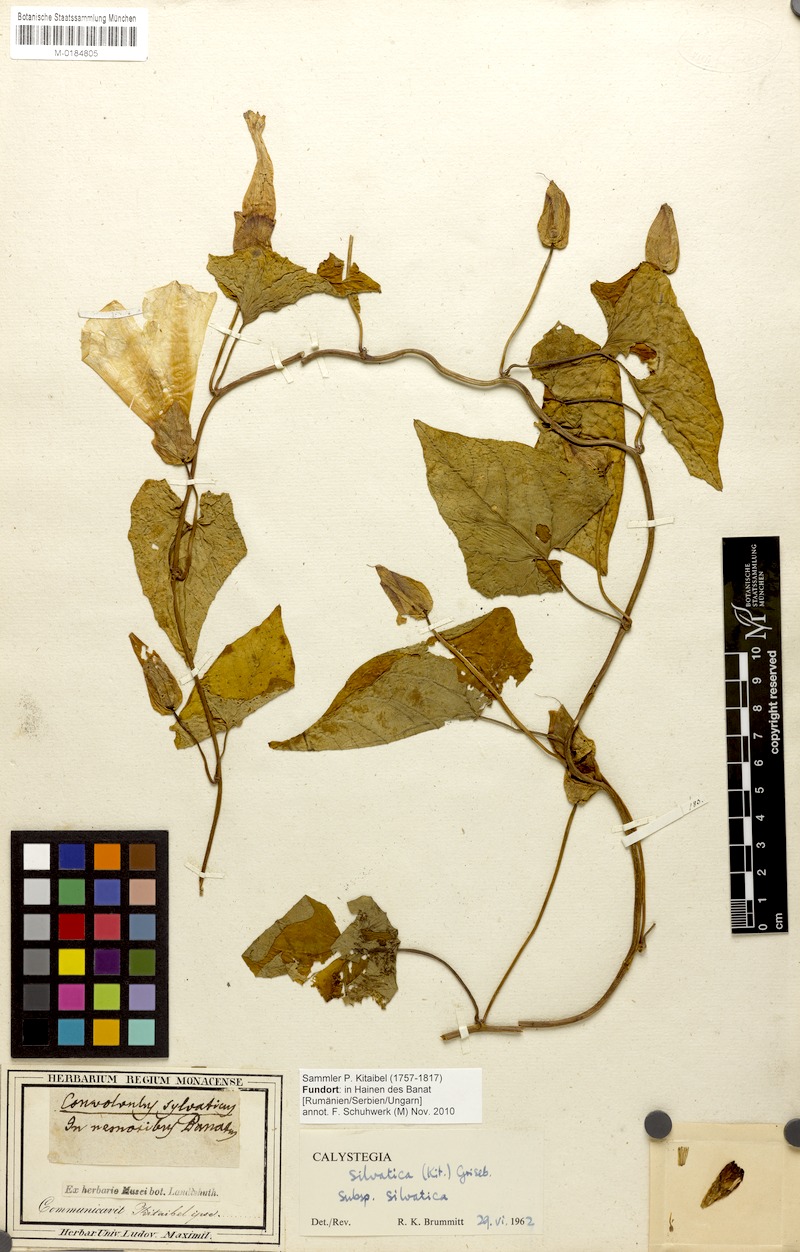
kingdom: Plantae
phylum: Tracheophyta
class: Magnoliopsida
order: Solanales
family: Convolvulaceae
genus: Calystegia
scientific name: Calystegia silvatica
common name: Large bindweed
